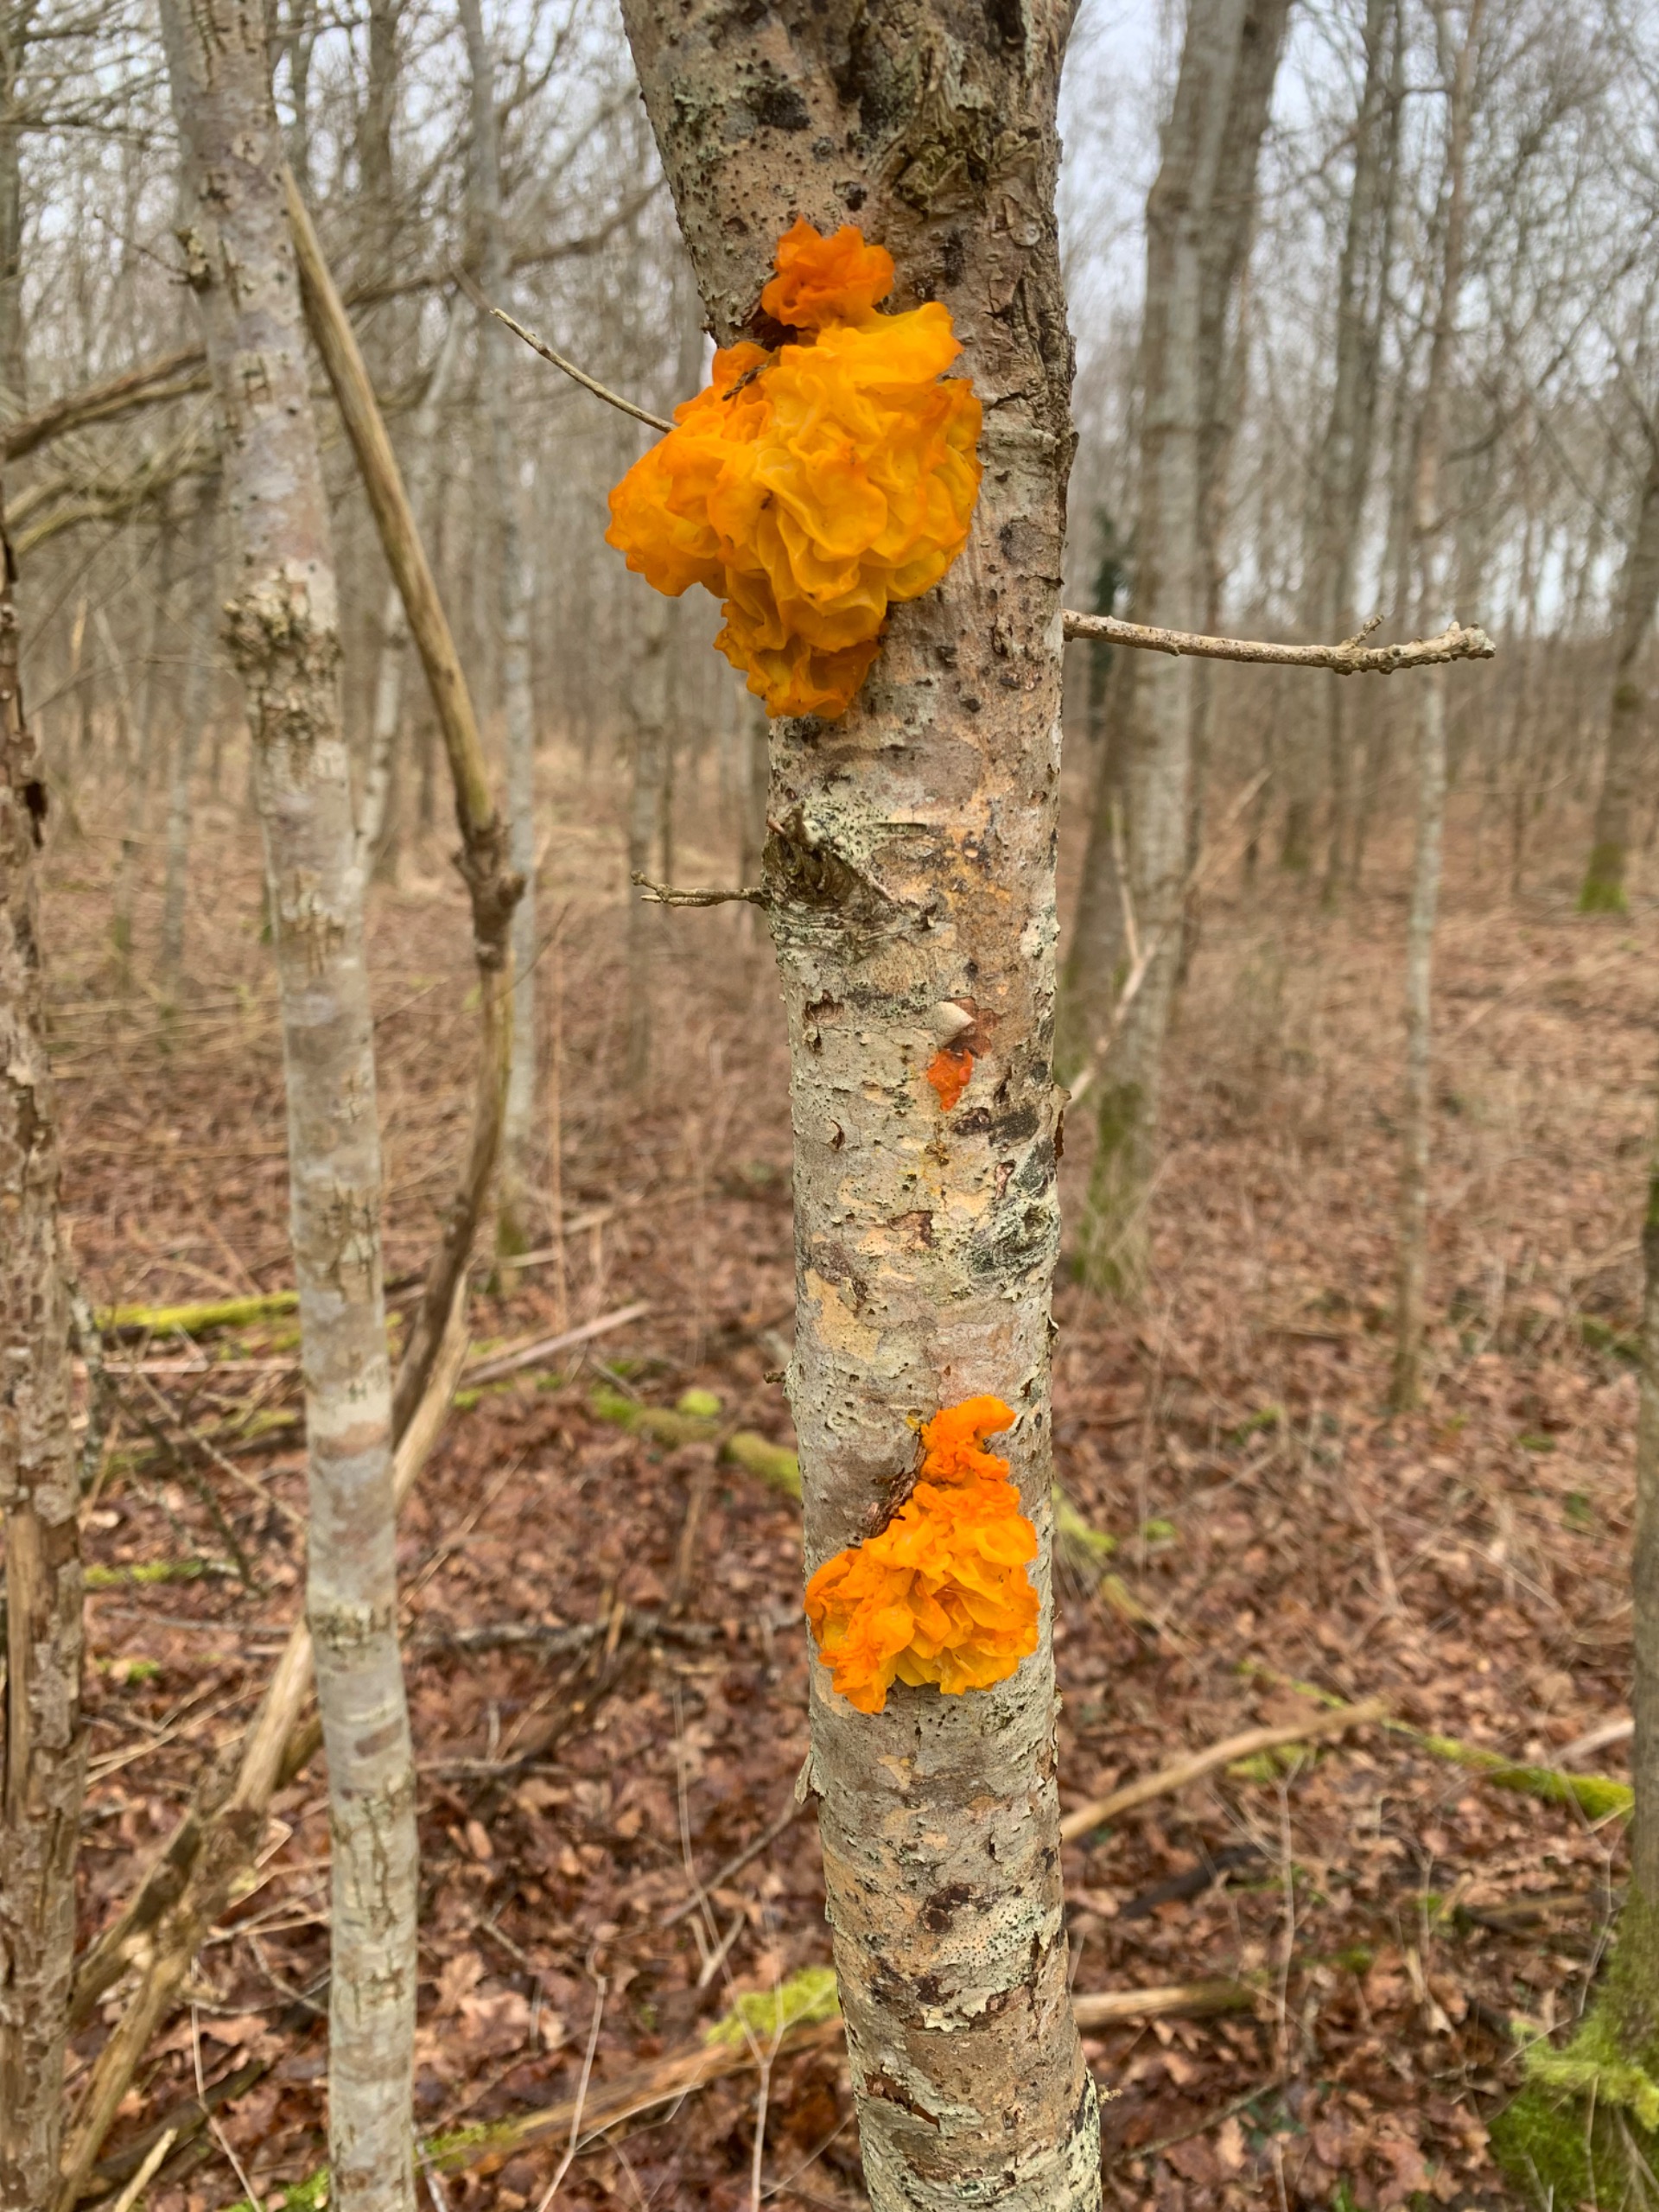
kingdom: Fungi
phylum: Basidiomycota
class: Tremellomycetes
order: Tremellales
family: Tremellaceae
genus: Tremella
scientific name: Tremella mesenterica
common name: Gul bævresvamp
